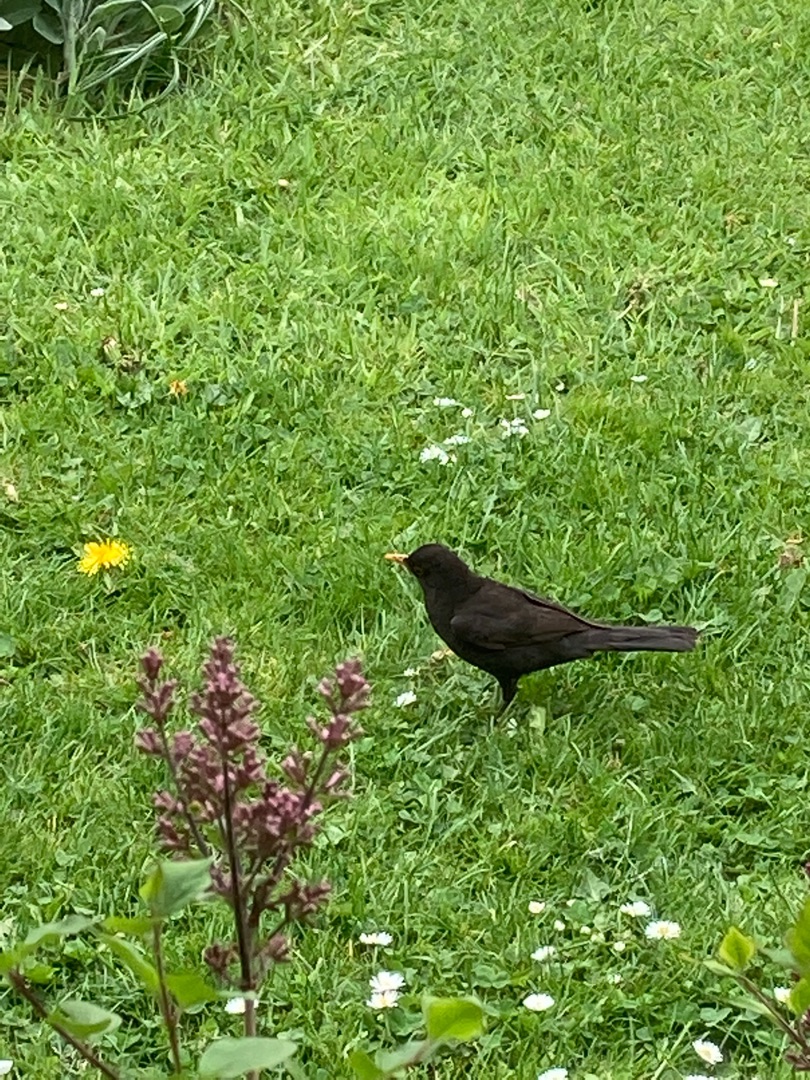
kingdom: Animalia
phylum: Chordata
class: Aves
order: Passeriformes
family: Turdidae
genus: Turdus
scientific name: Turdus merula
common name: Solsort
